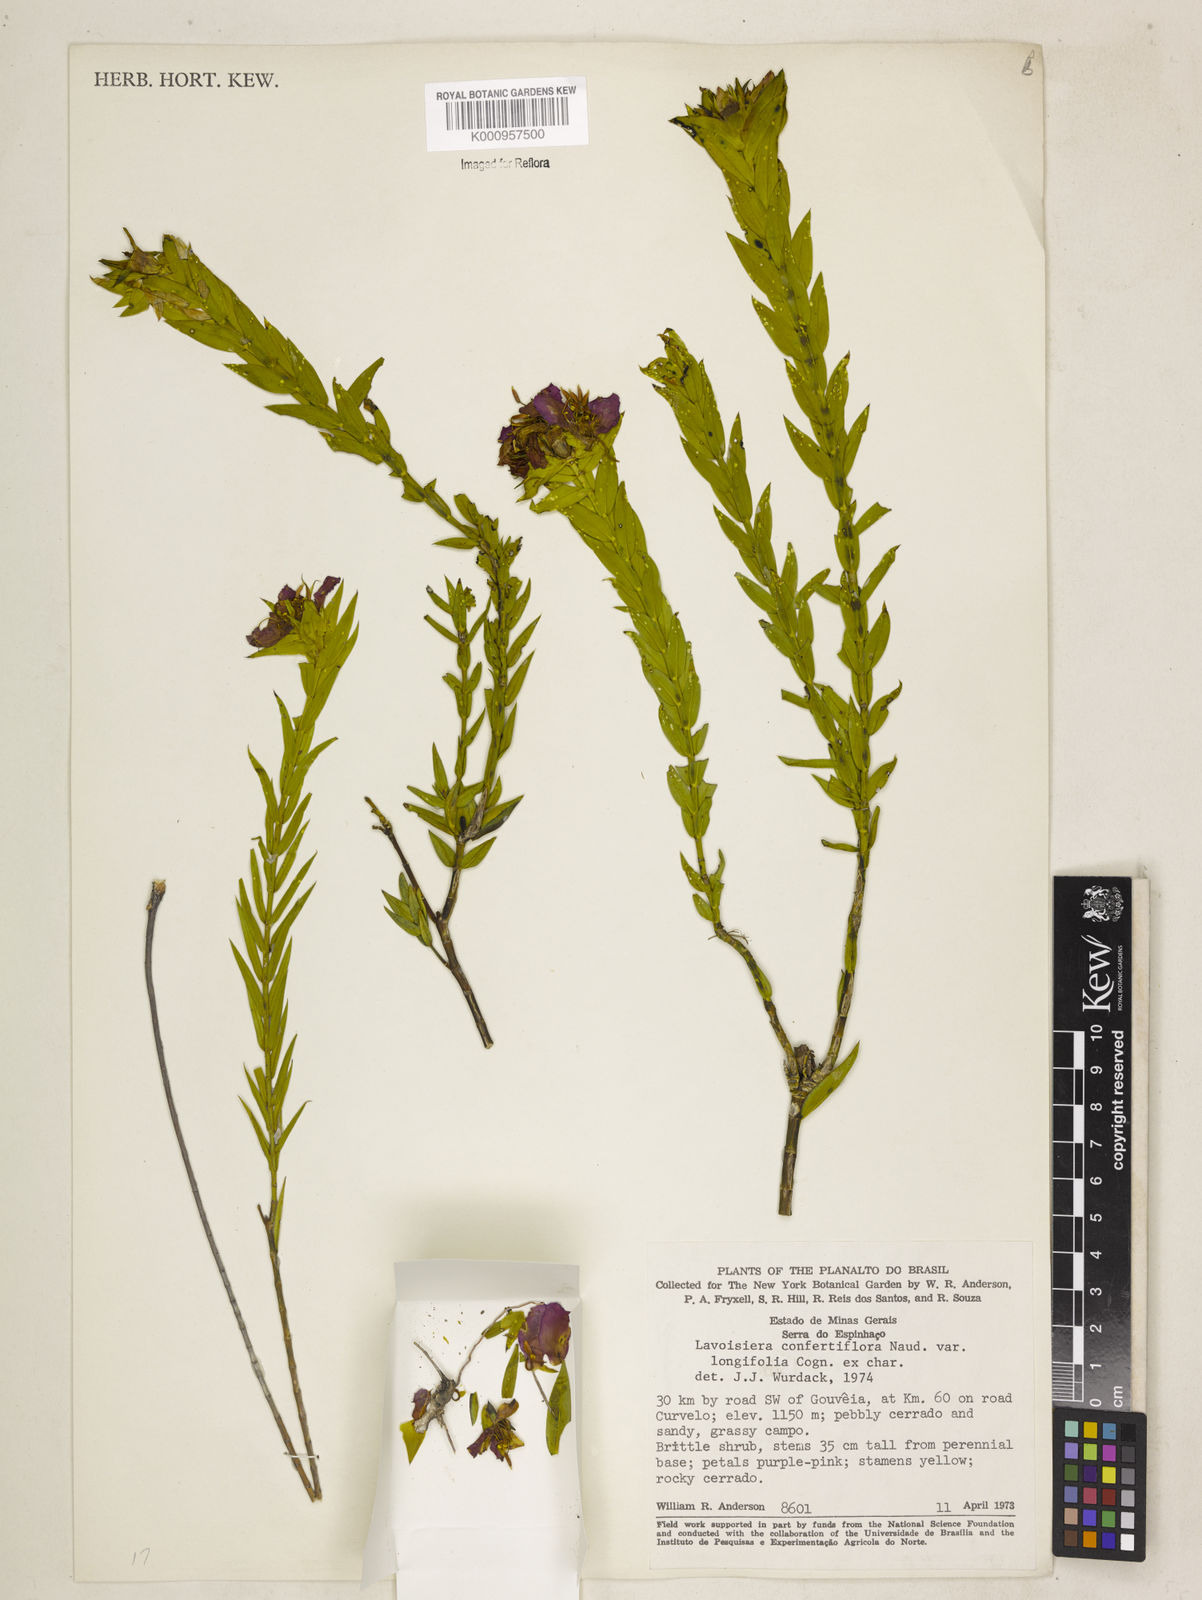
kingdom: Plantae
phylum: Tracheophyta
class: Magnoliopsida
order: Myrtales
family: Melastomataceae
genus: Microlicia
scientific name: Microlicia congestiflora
